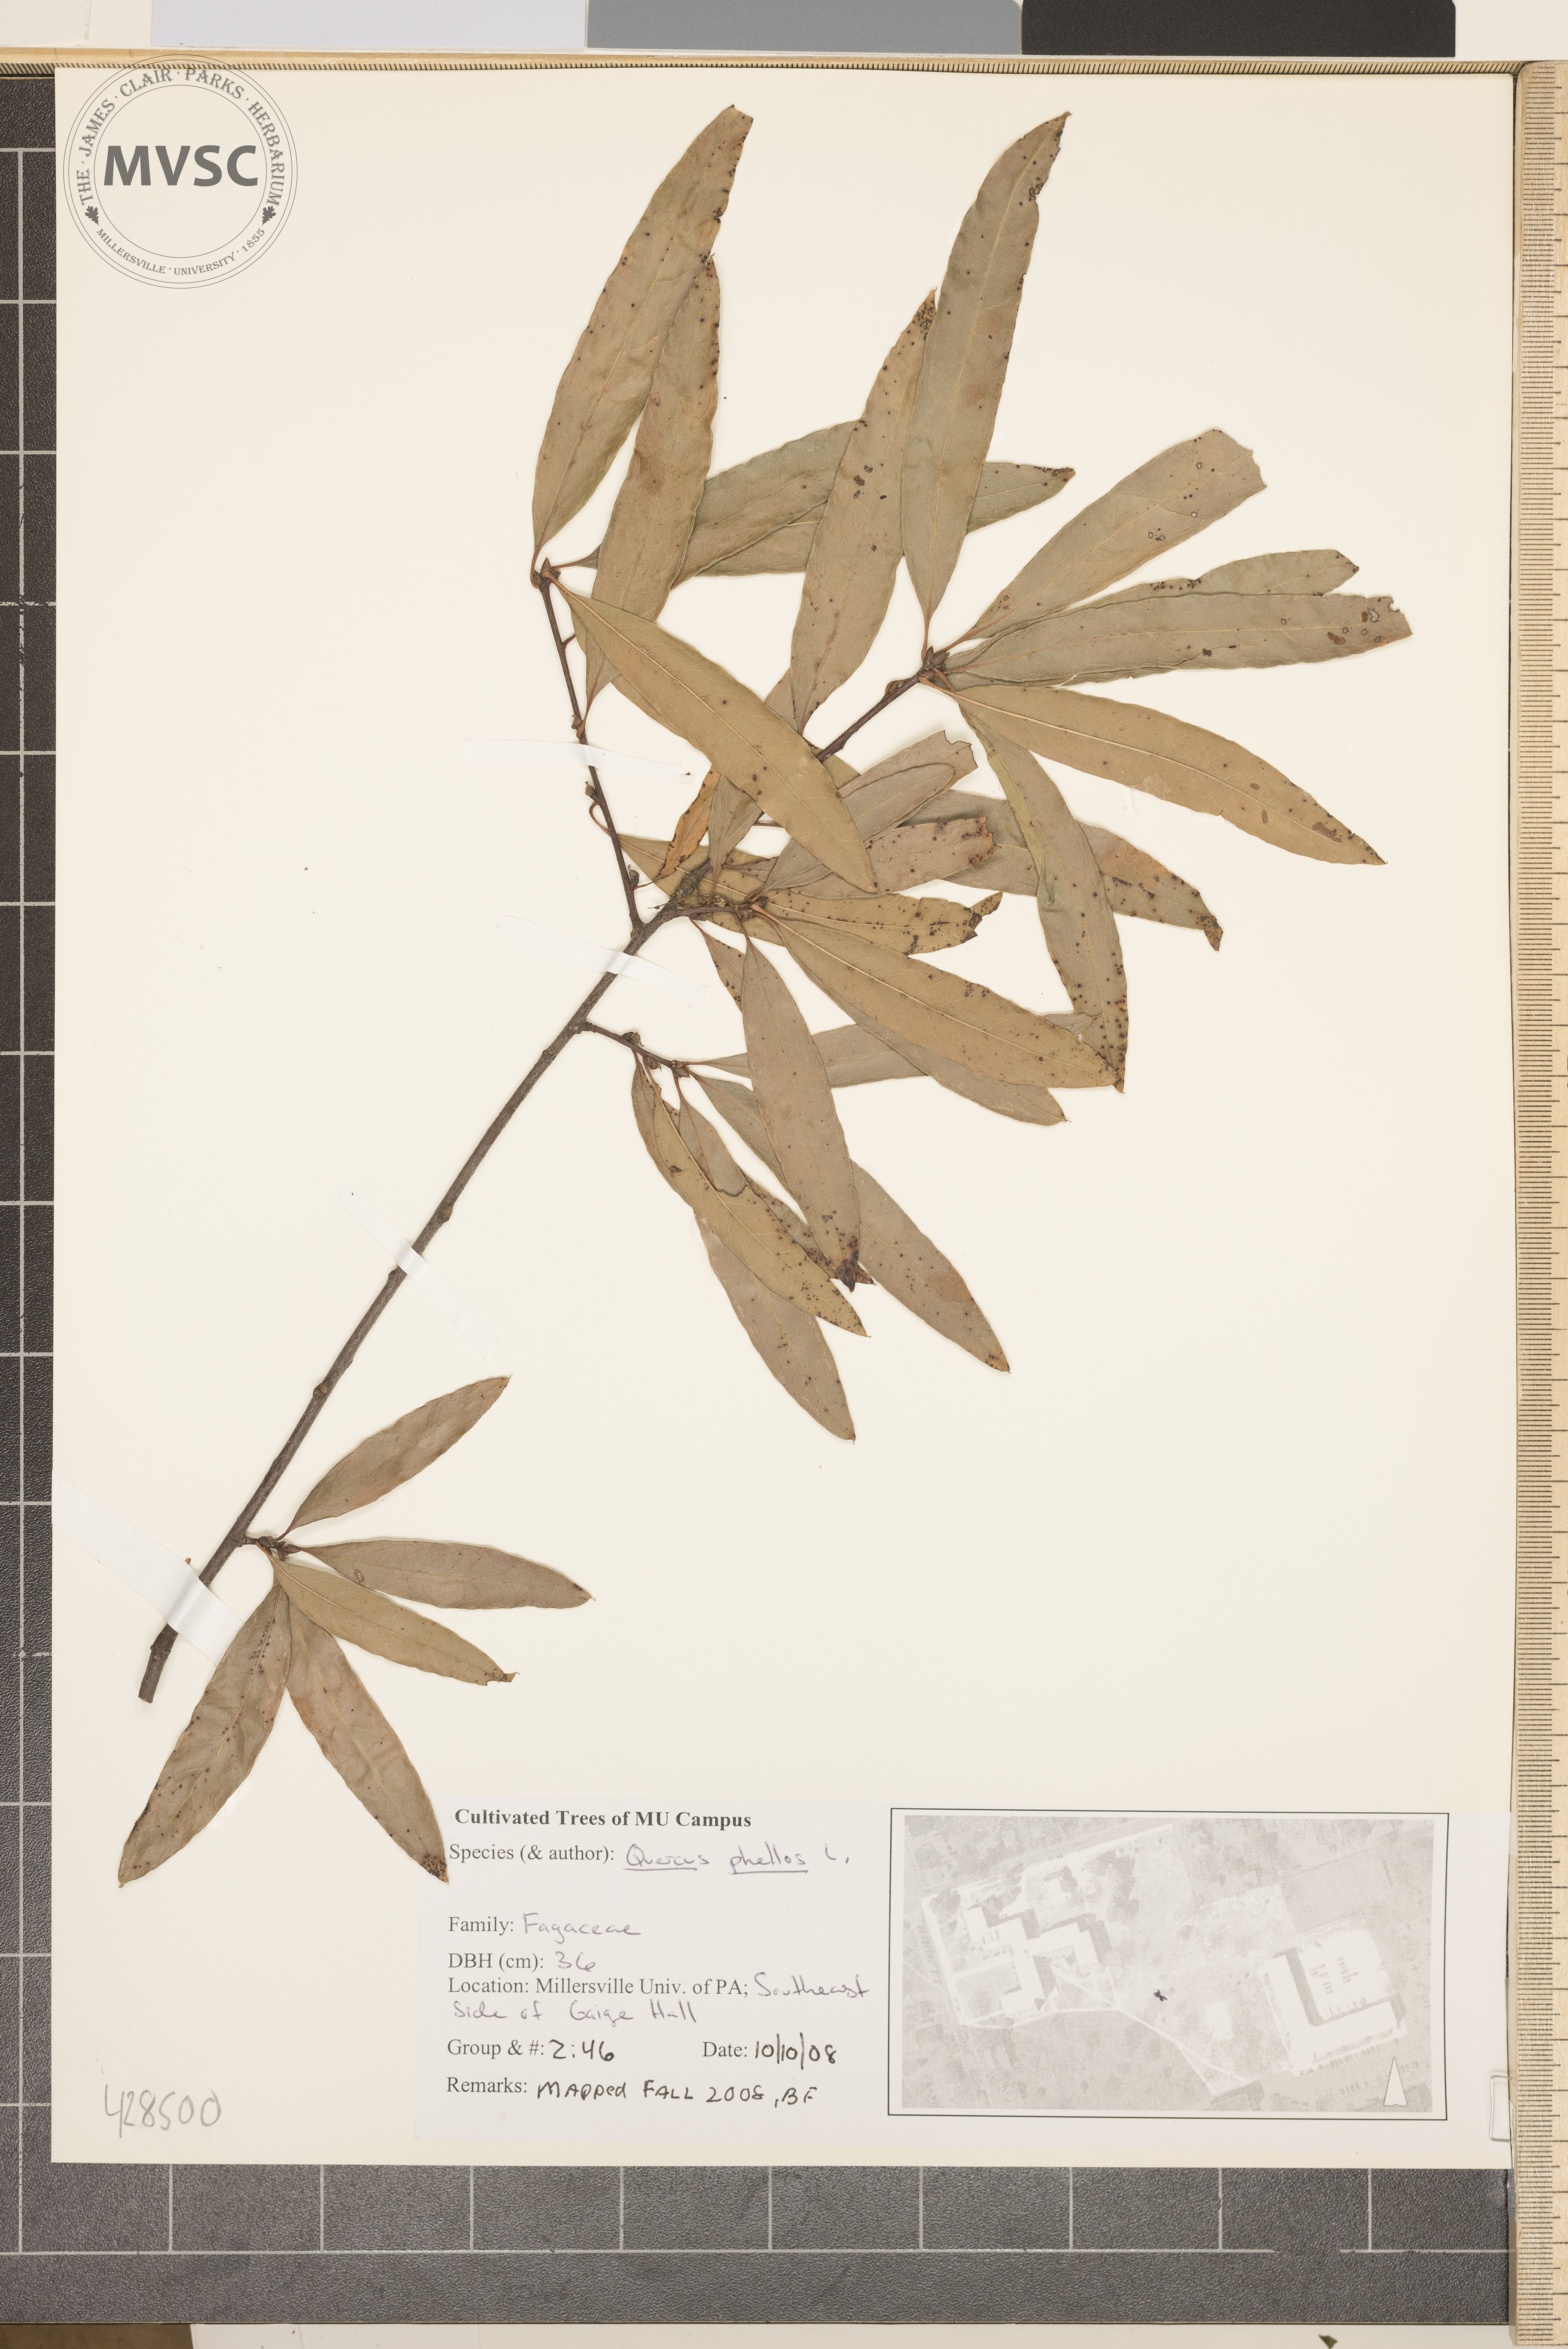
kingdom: Plantae
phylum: Tracheophyta
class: Magnoliopsida
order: Fagales
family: Fagaceae
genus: Quercus
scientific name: Quercus phellos
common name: Willow Oak
